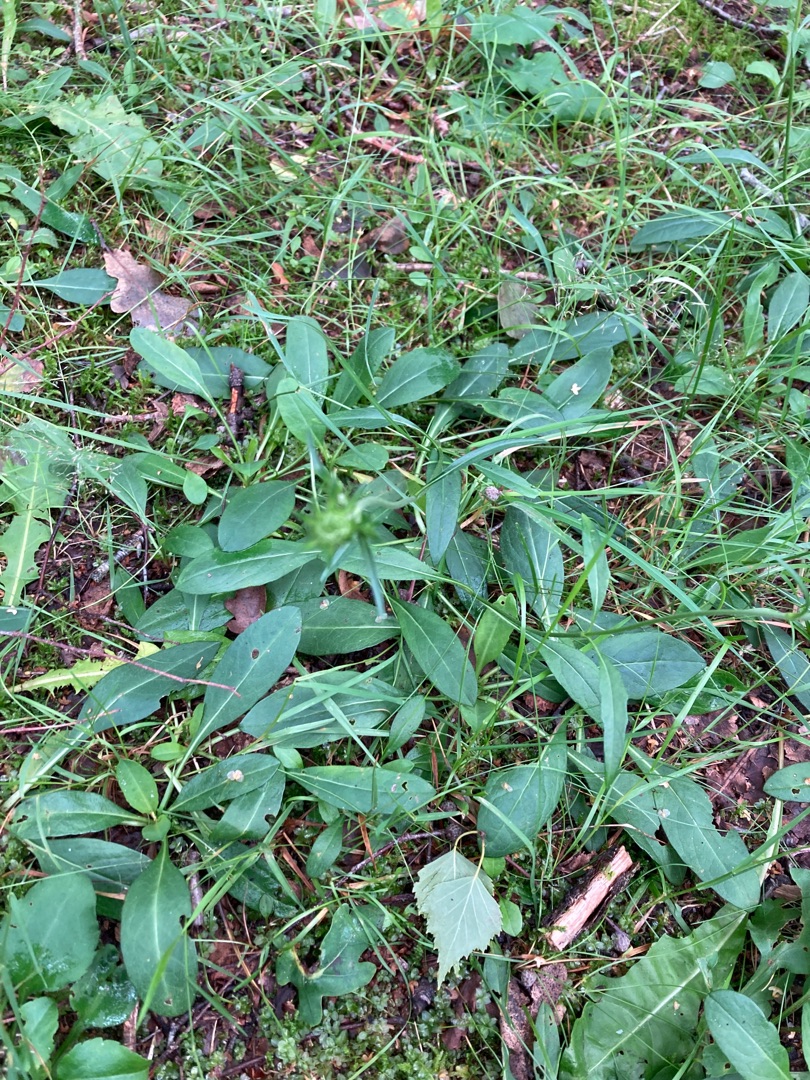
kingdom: Plantae
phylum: Tracheophyta
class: Magnoliopsida
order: Dipsacales
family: Caprifoliaceae
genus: Succisa
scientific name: Succisa pratensis
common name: Djævelsbid
